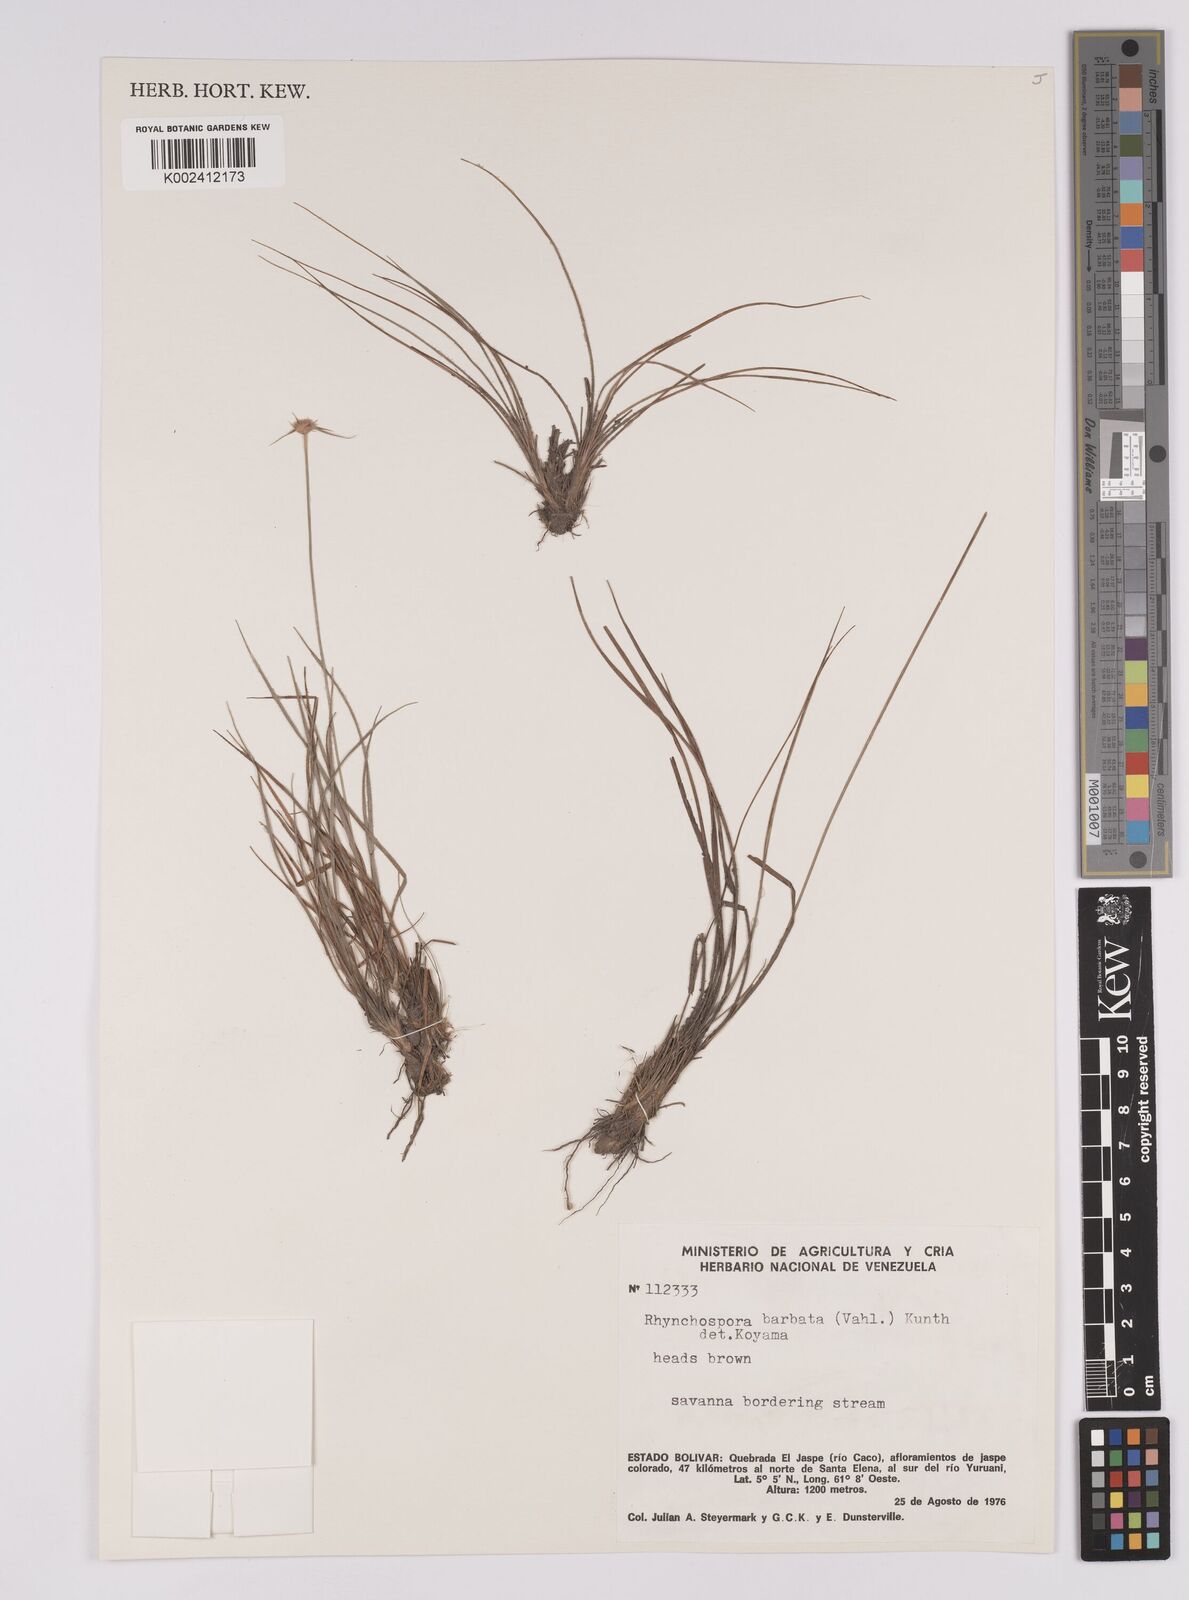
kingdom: Plantae
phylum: Tracheophyta
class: Liliopsida
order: Poales
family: Cyperaceae
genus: Rhynchospora
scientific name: Rhynchospora barbata
